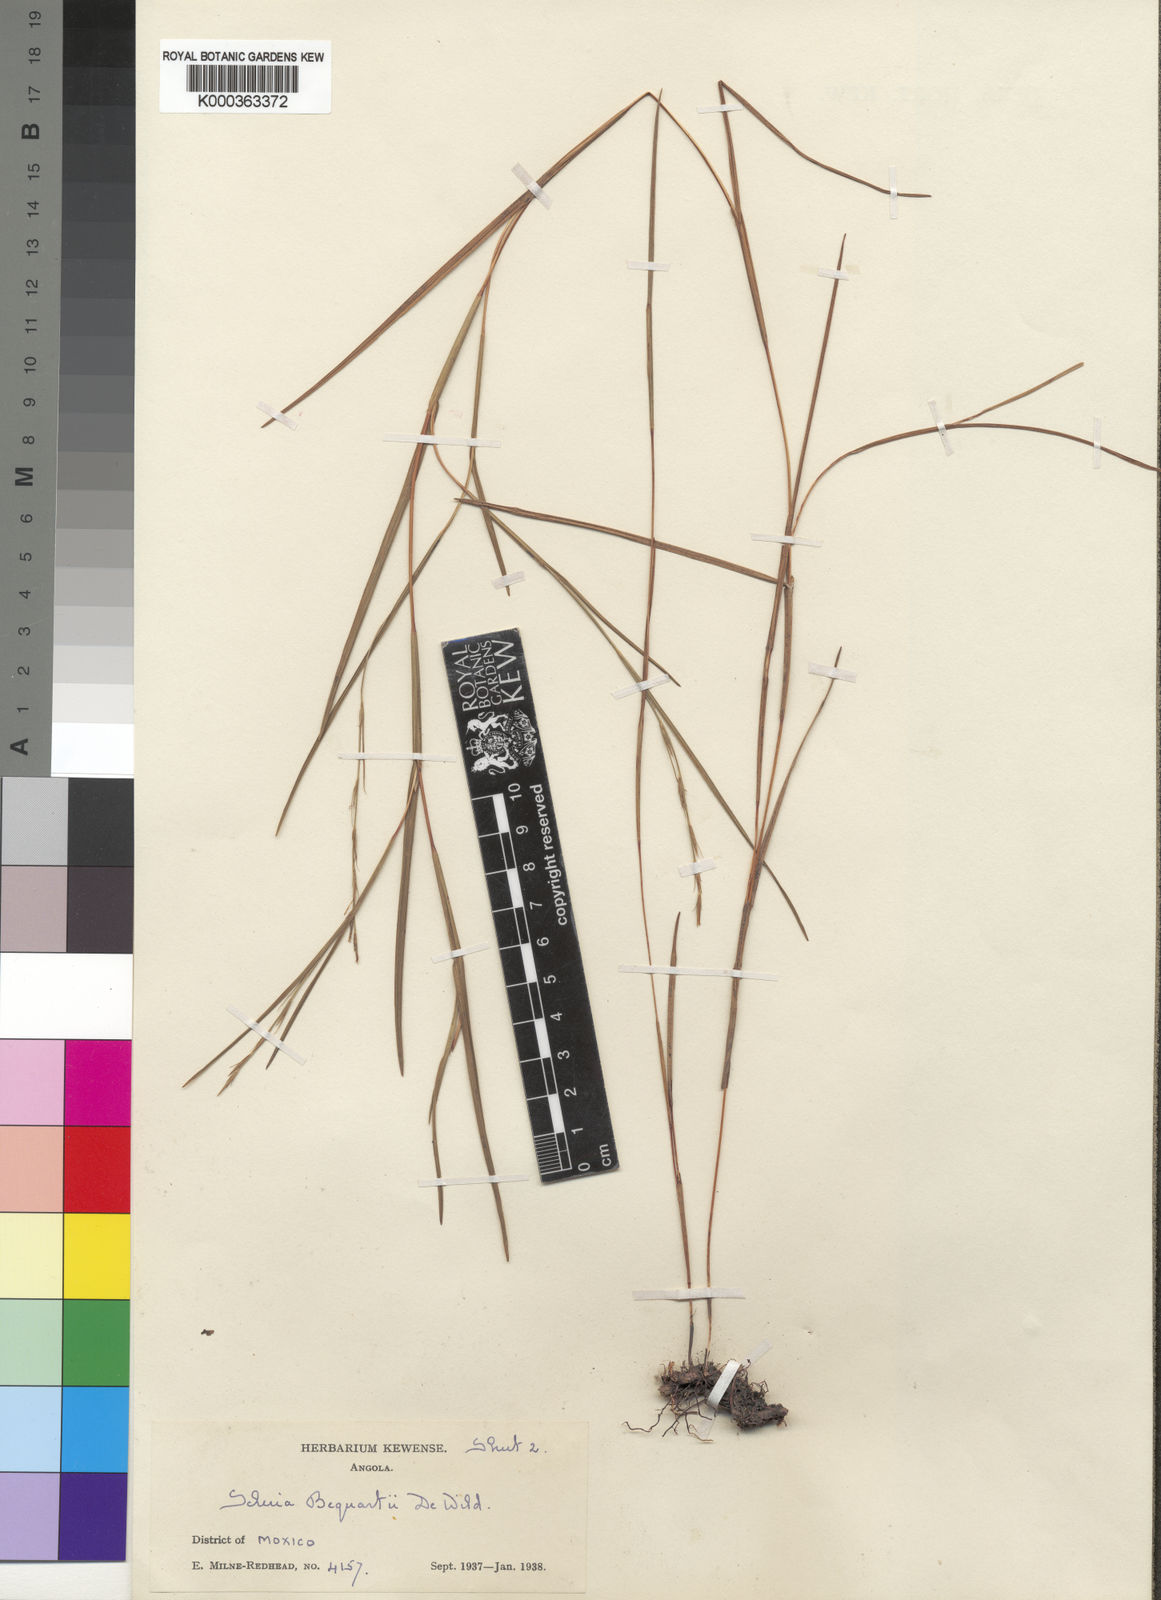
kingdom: Plantae
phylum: Tracheophyta
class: Liliopsida
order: Poales
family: Cyperaceae
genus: Scleria
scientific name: Scleria bequaertii
